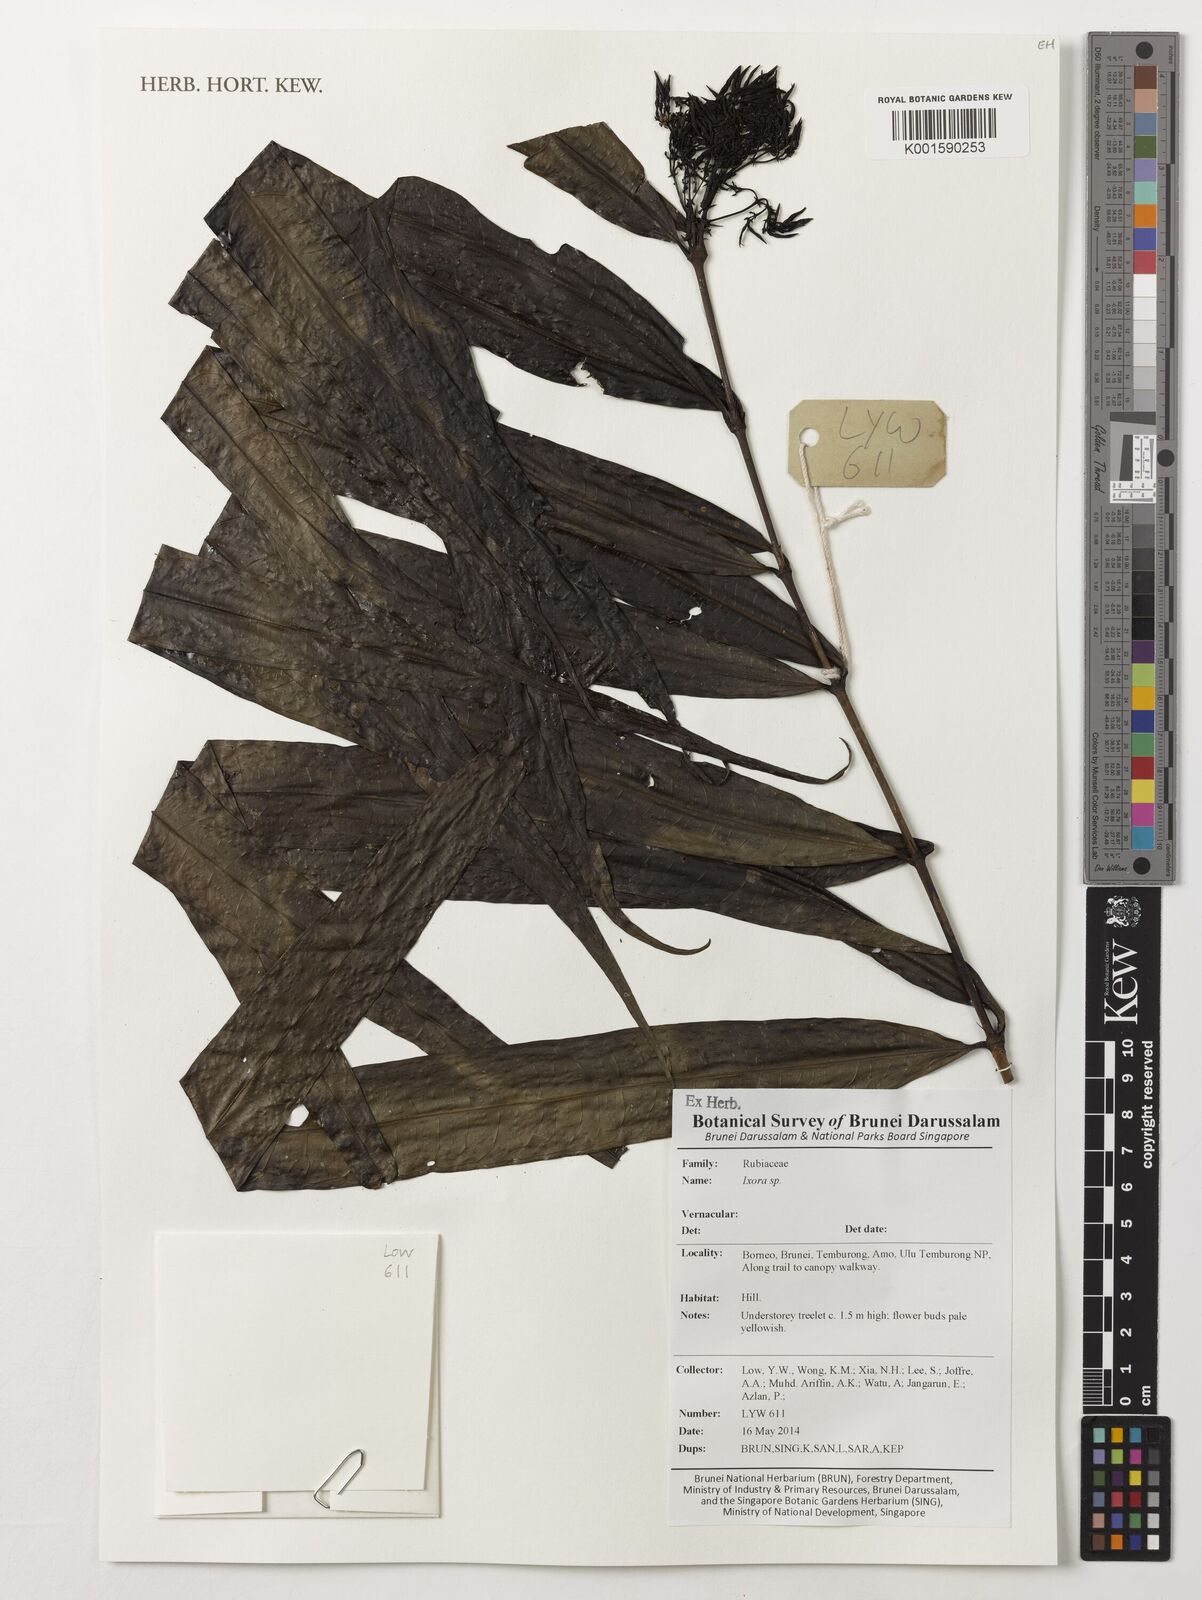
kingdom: Plantae
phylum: Tracheophyta
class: Magnoliopsida
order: Gentianales
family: Rubiaceae
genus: Ixora
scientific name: Ixora
